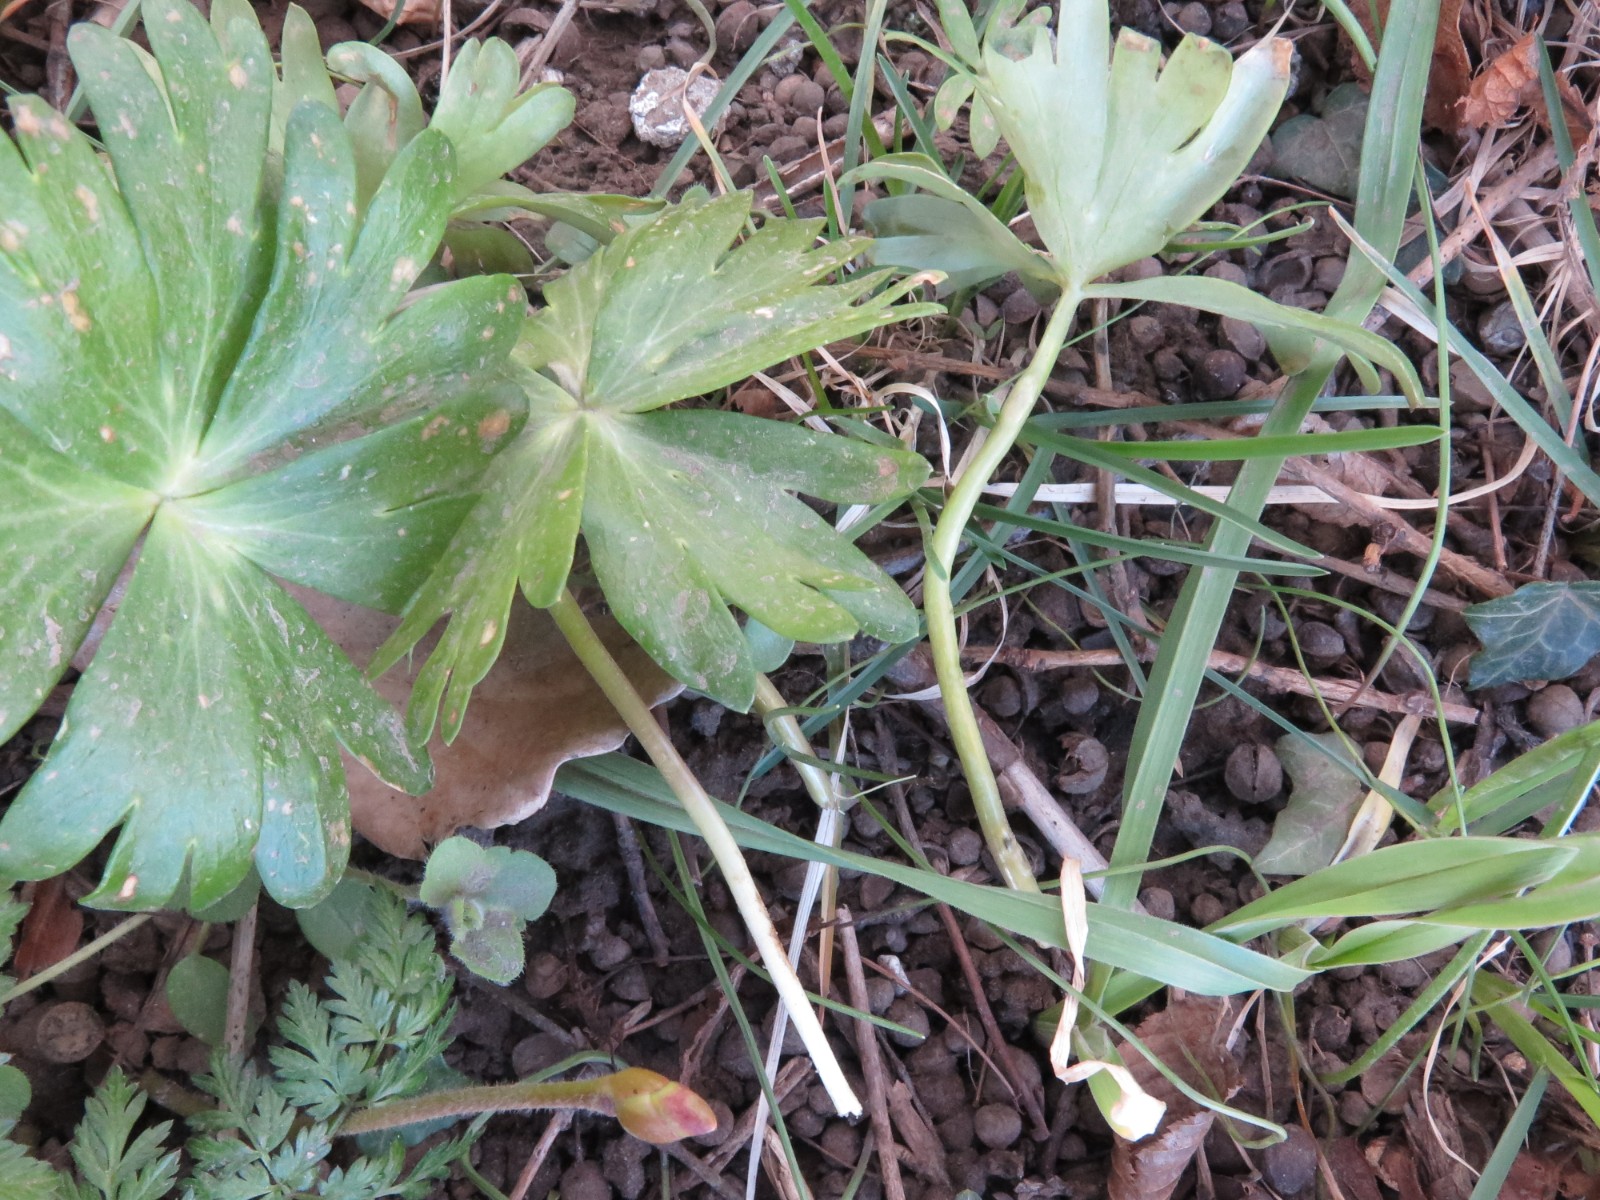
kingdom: Fungi
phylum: Basidiomycota
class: Ustilaginomycetes
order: Urocystidales
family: Urocystidaceae
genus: Urocystis
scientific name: Urocystis eranthidis
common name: erantis-brand
